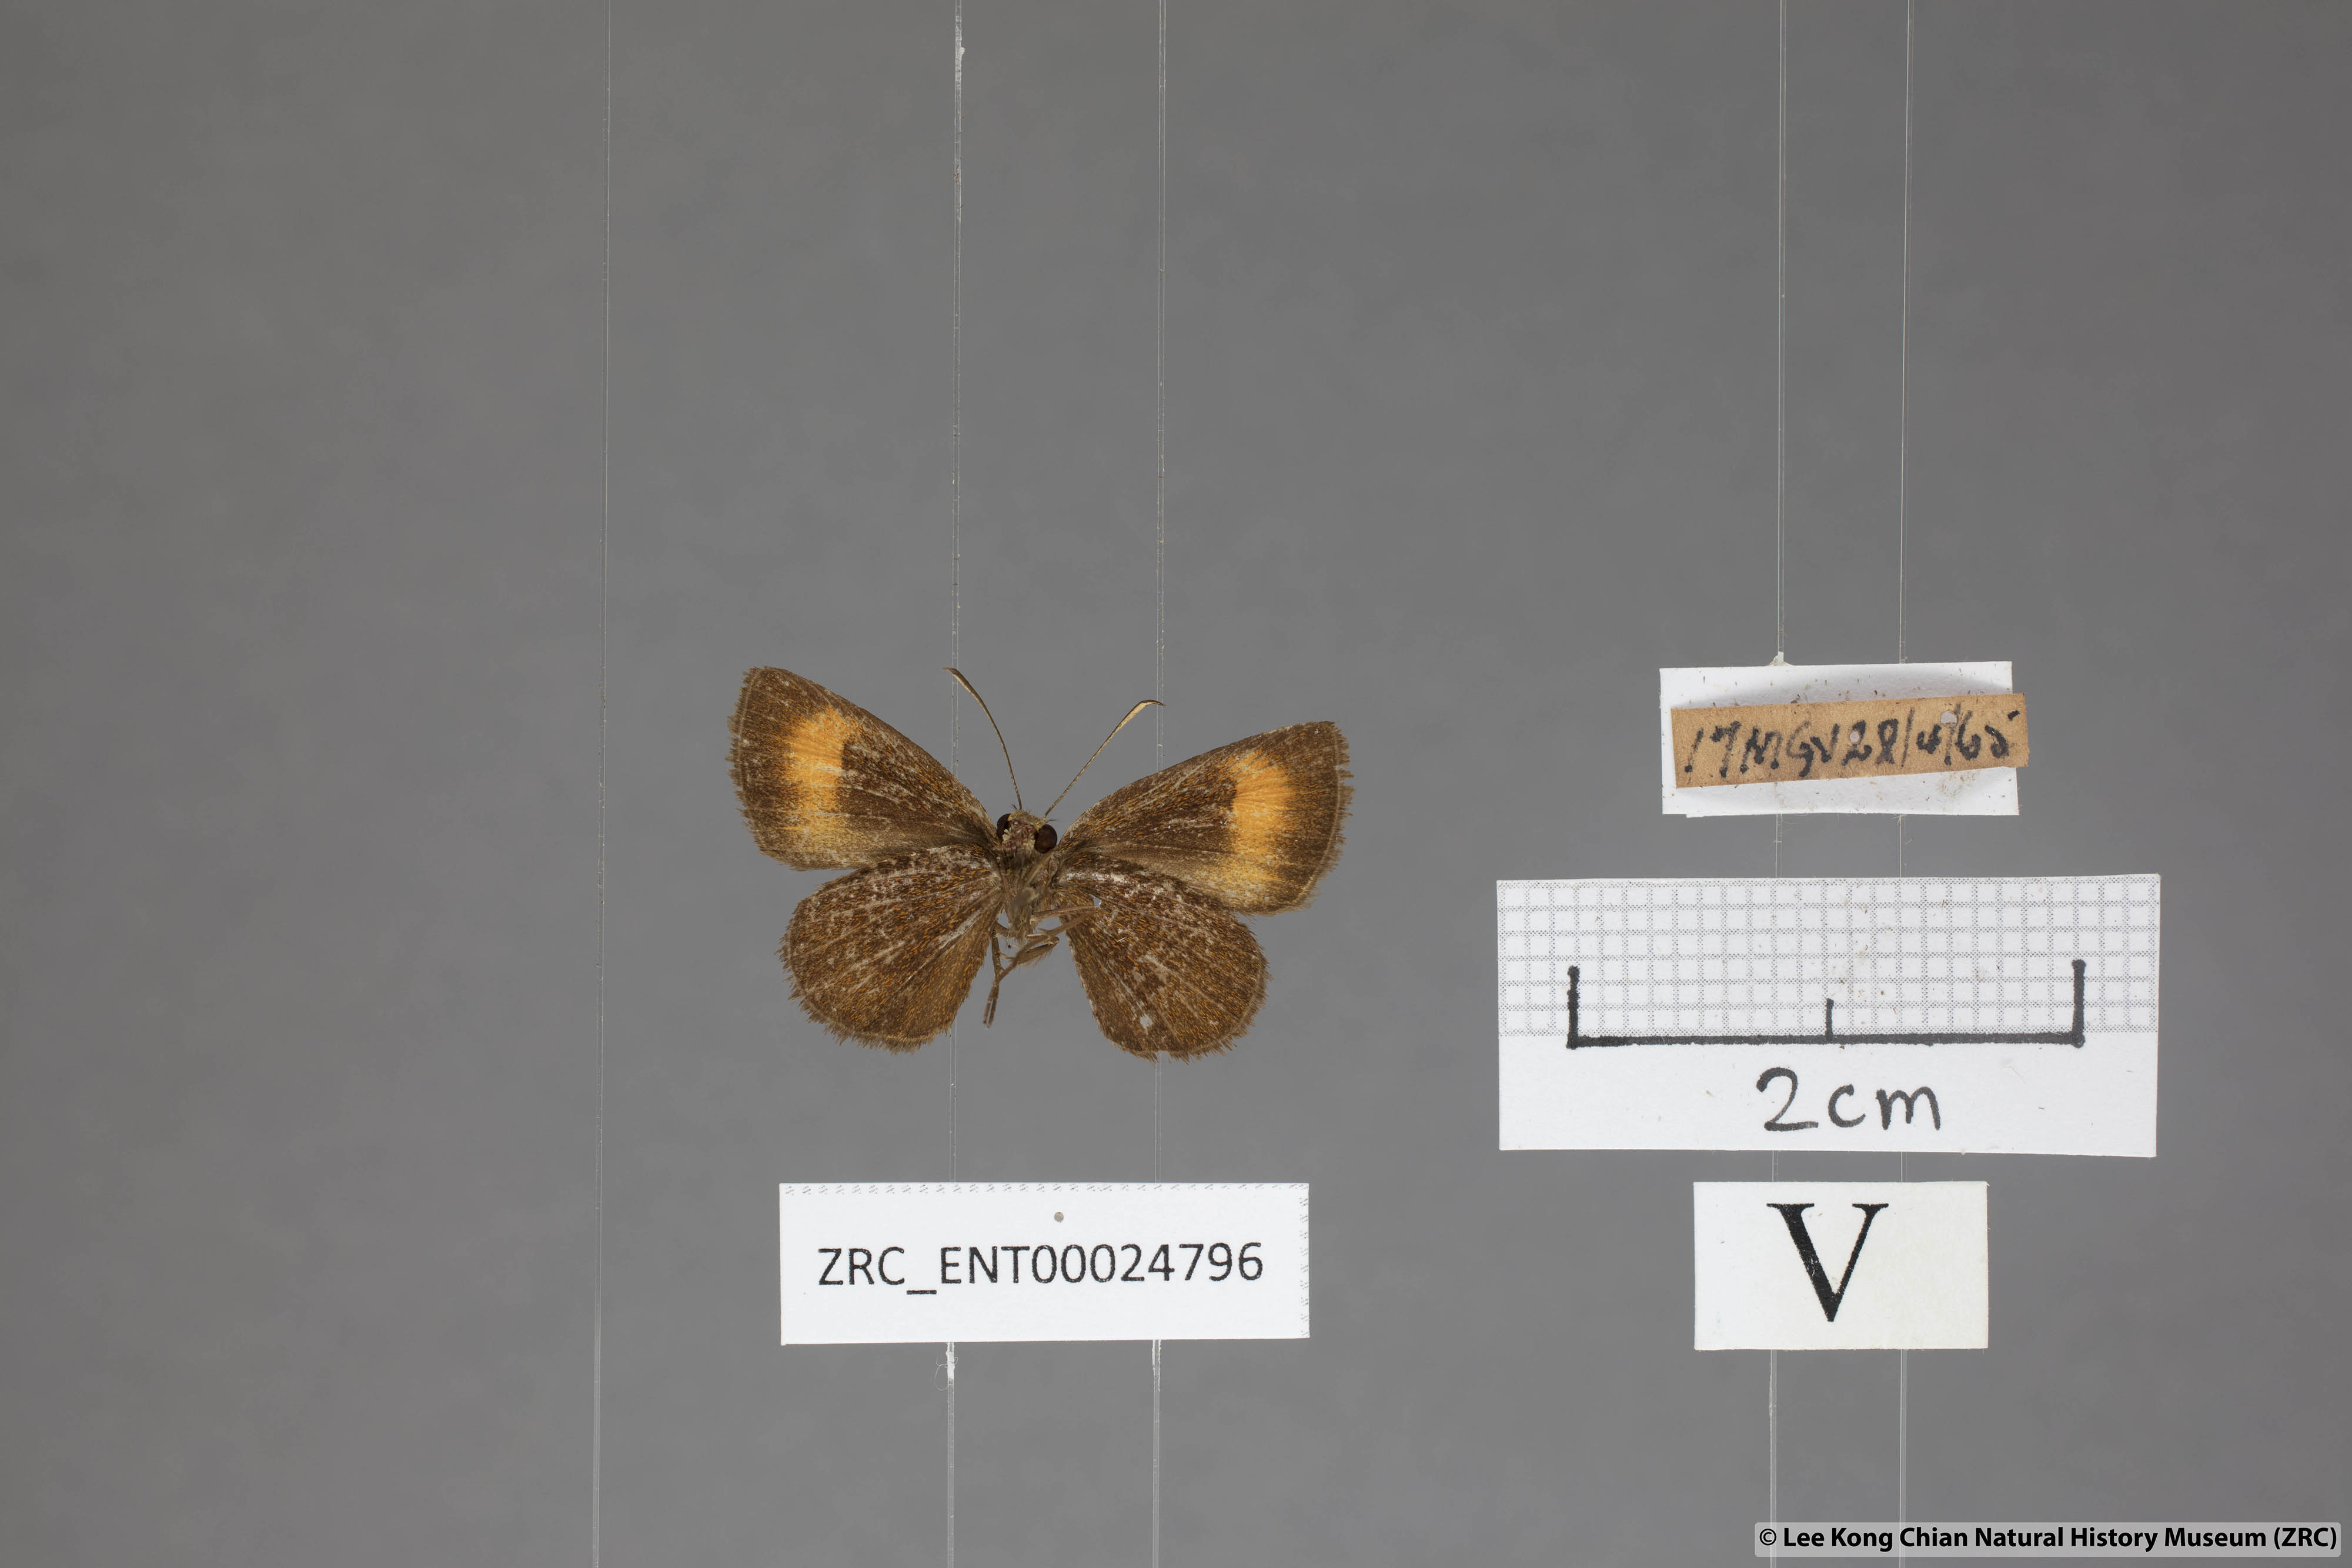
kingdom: Animalia
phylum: Arthropoda
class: Insecta
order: Lepidoptera
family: Hesperiidae
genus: Iambrix
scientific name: Iambrix Idmon obliquans
